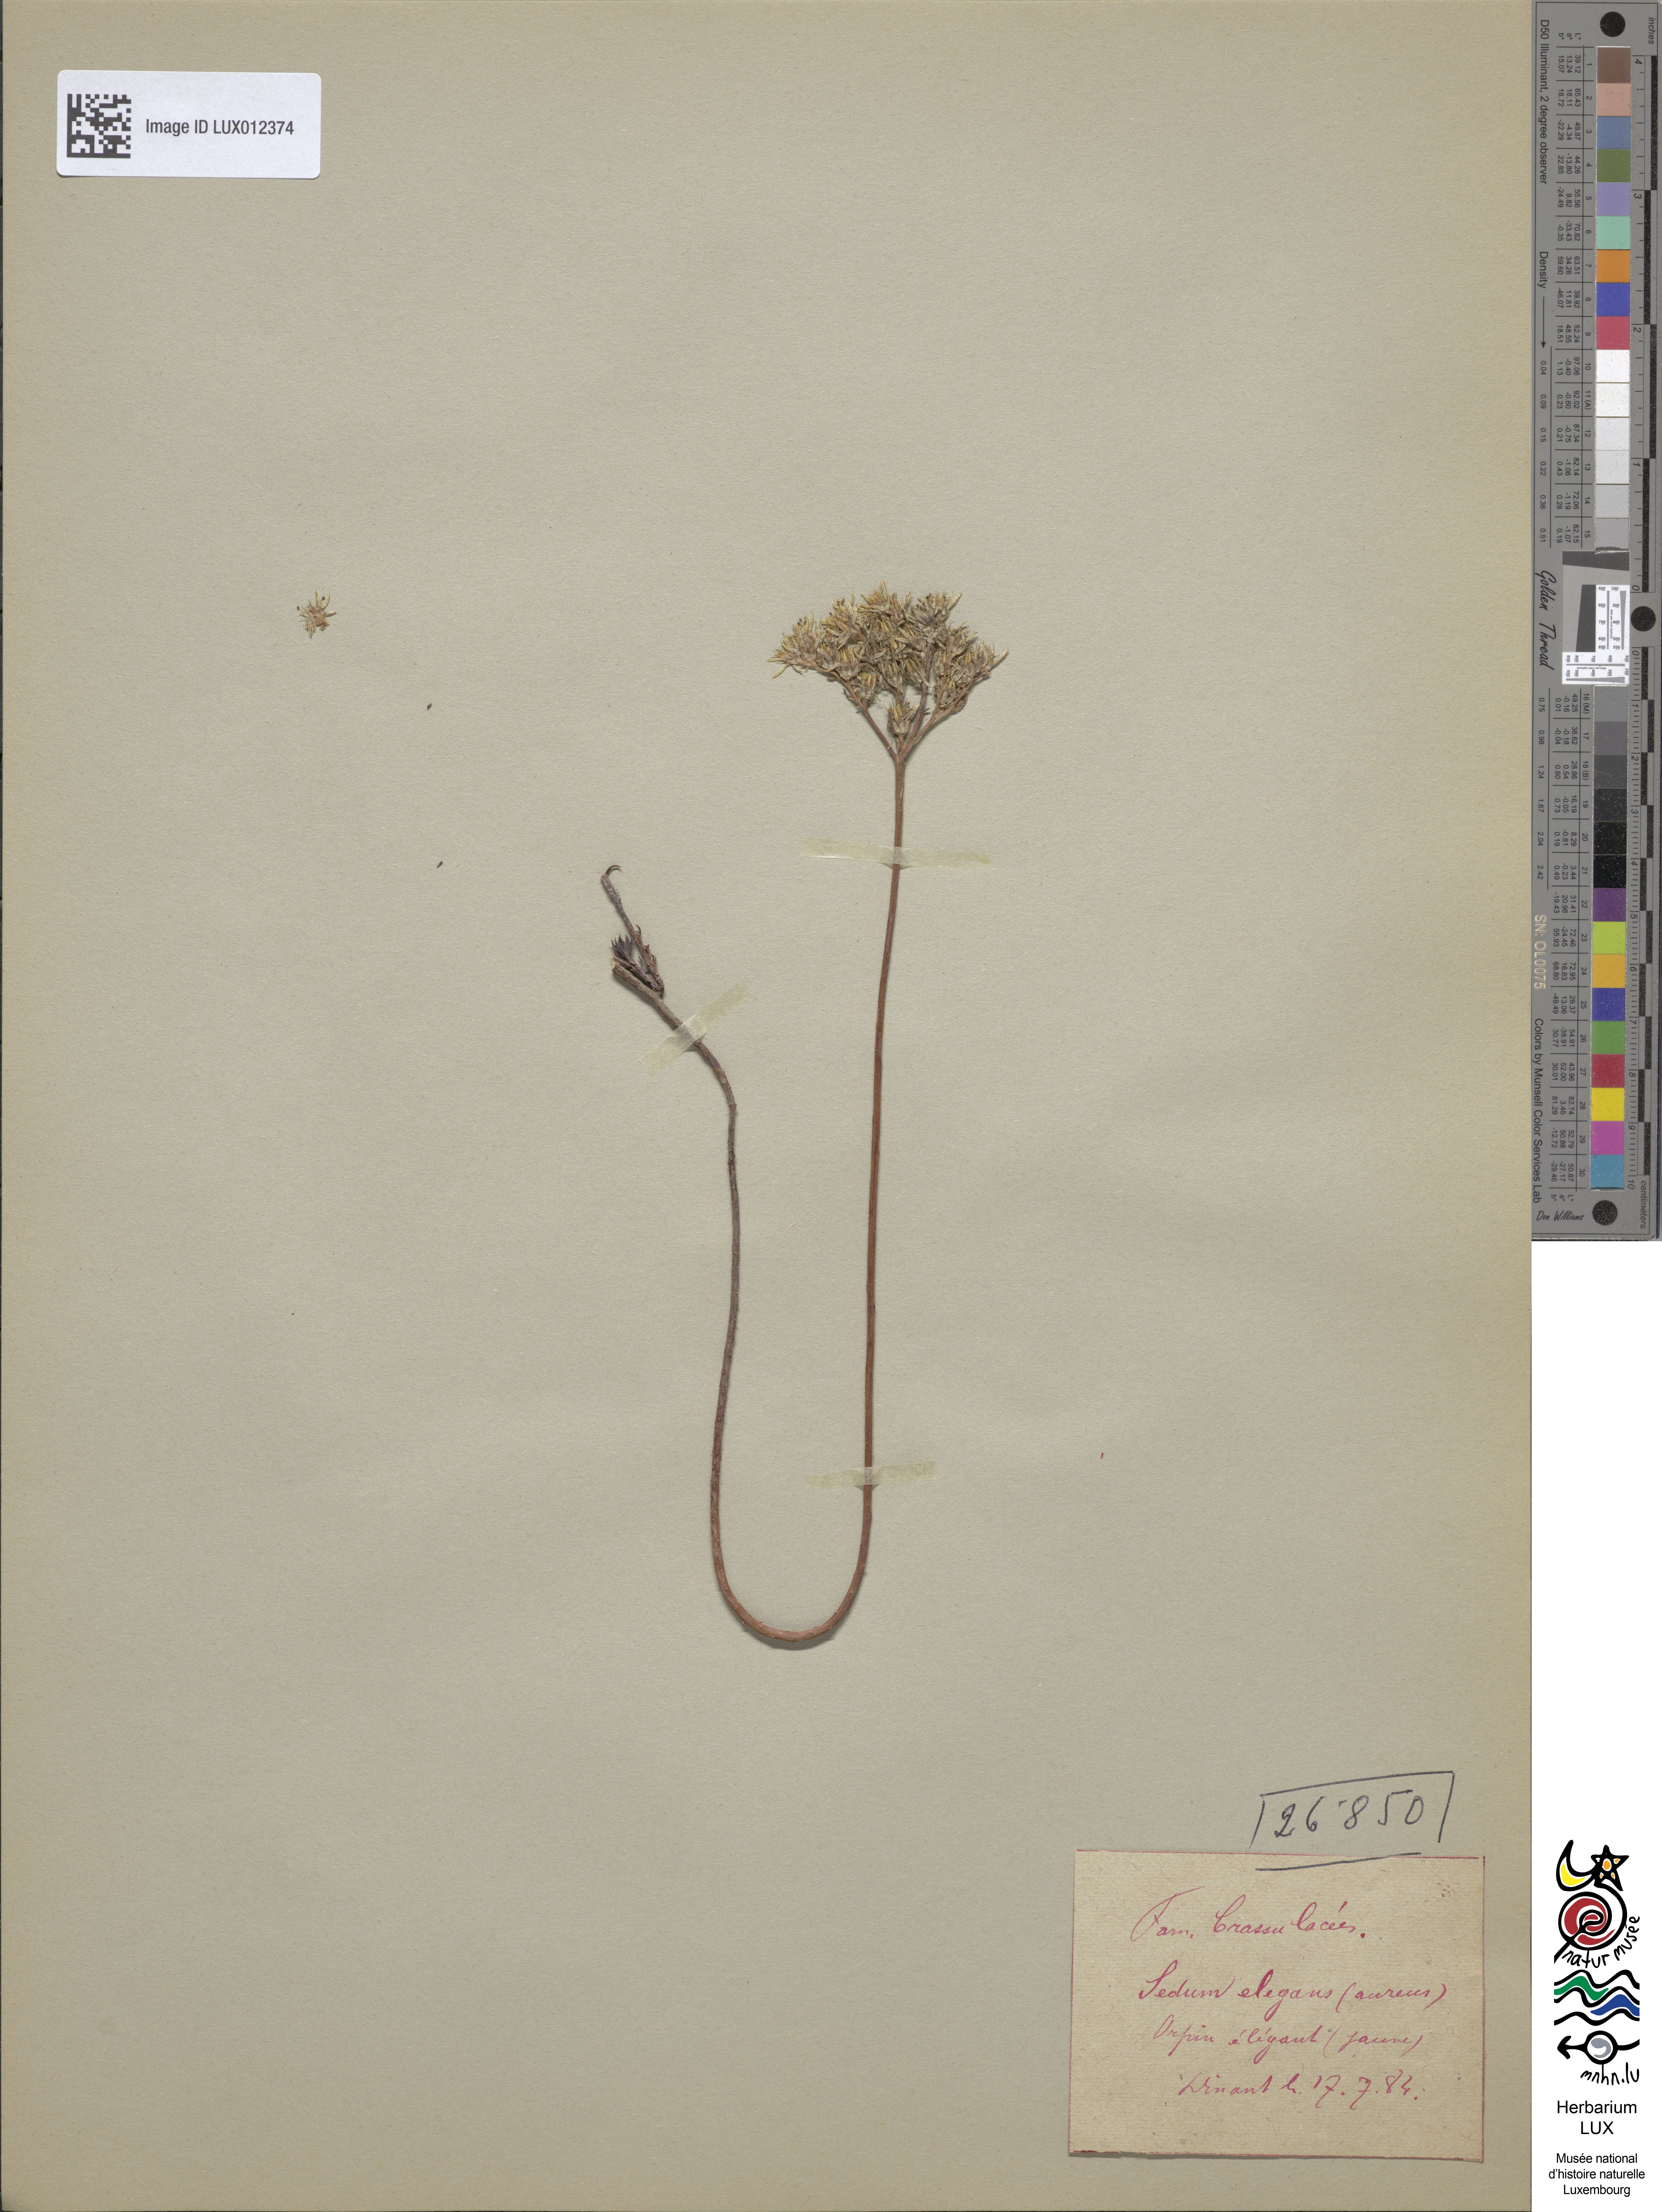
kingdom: Plantae
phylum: Tracheophyta
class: Magnoliopsida
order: Saxifragales
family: Crassulaceae
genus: Petrosedum
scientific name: Petrosedum forsterianum
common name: Forster's stonecrop
